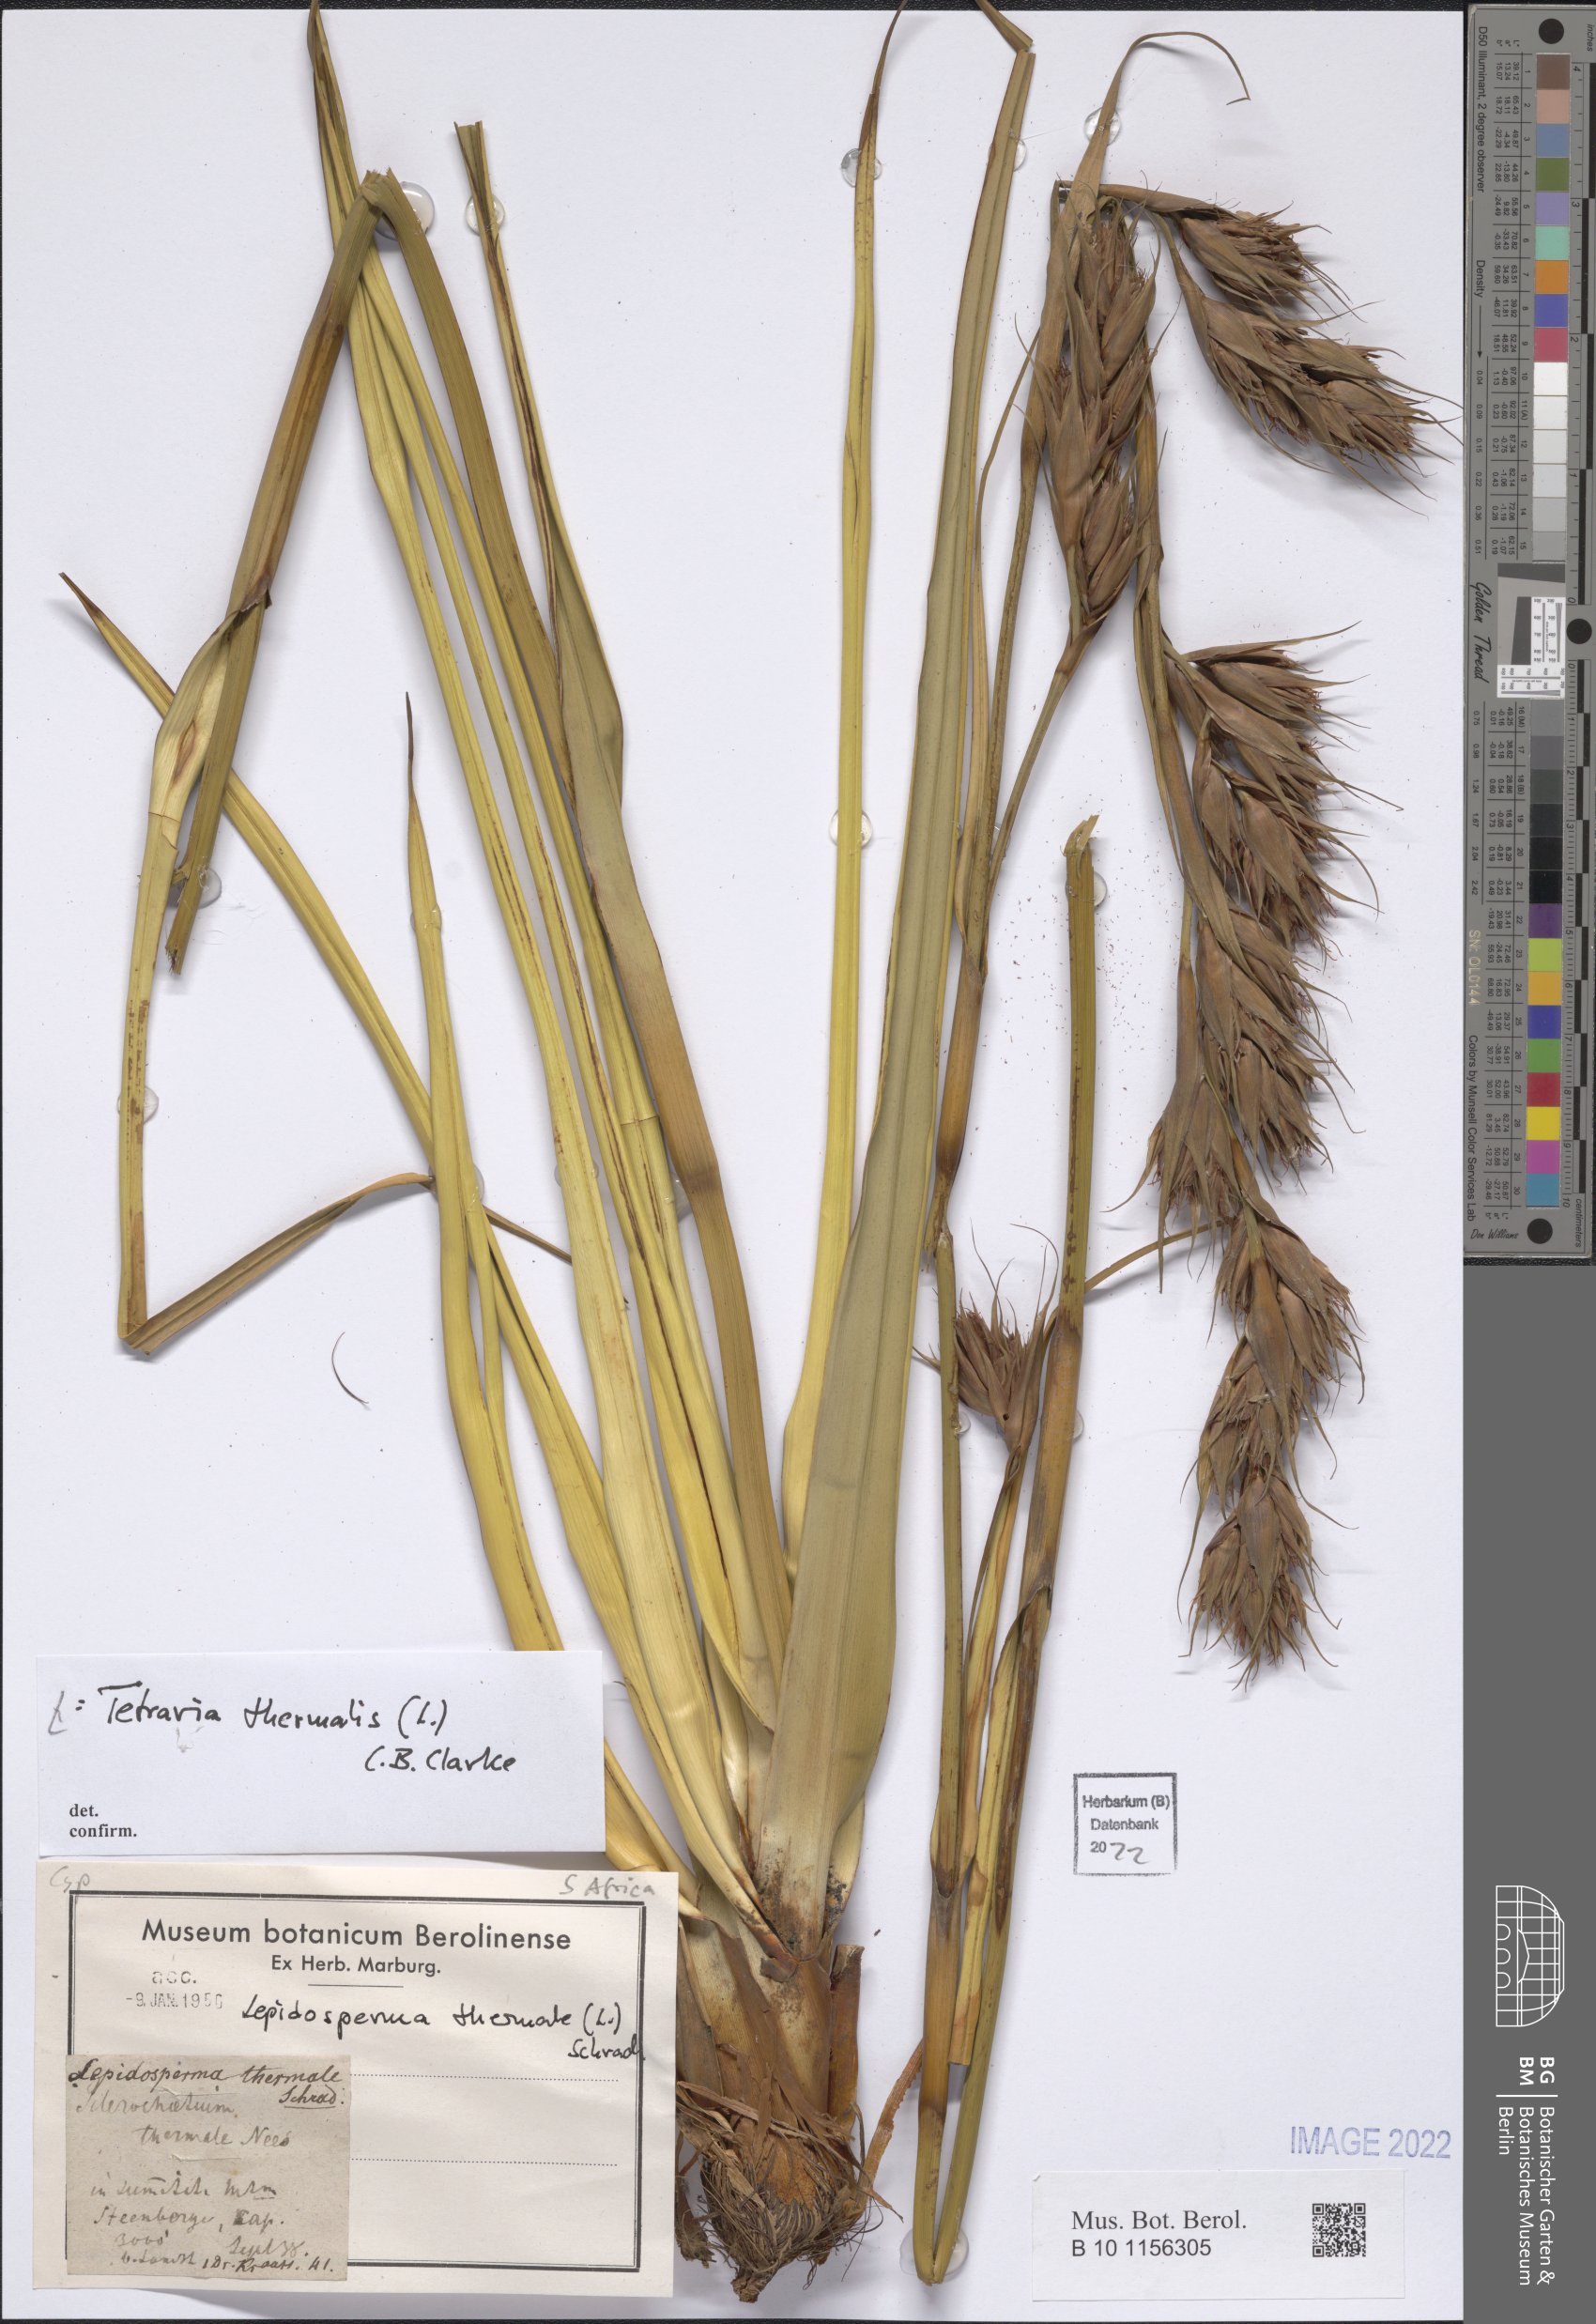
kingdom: Plantae
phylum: Tracheophyta
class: Liliopsida
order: Poales
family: Cyperaceae
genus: Tetraria
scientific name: Tetraria thermalis
